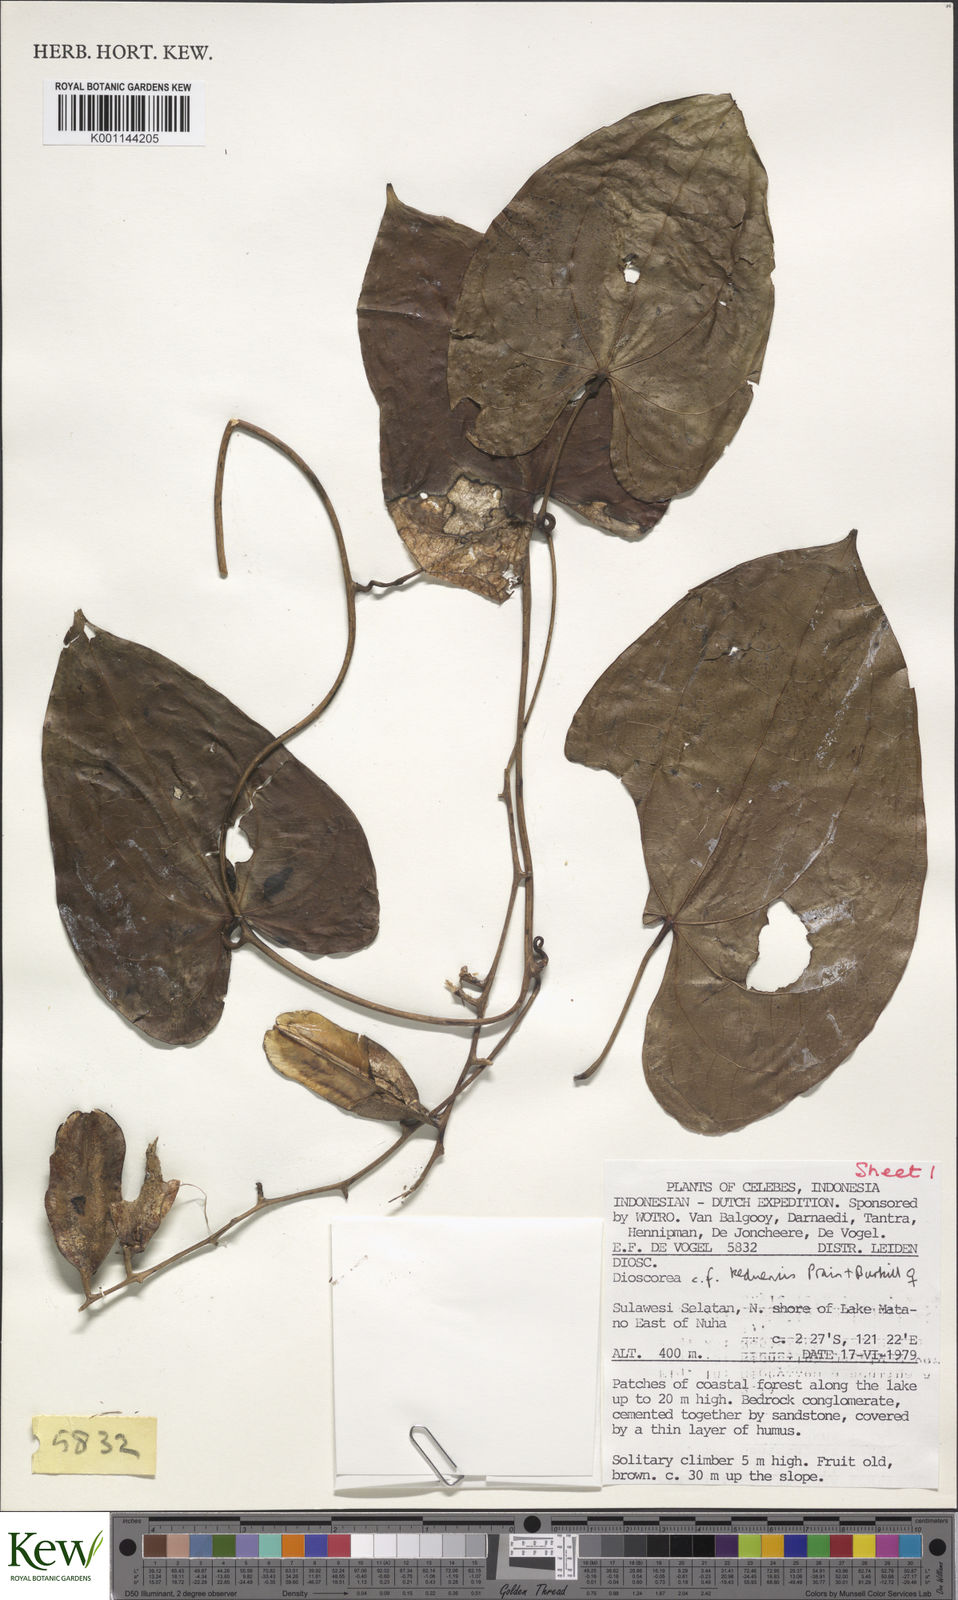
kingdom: Plantae
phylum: Tracheophyta
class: Liliopsida
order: Dioscoreales
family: Dioscoreaceae
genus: Dioscorea
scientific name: Dioscorea keduensis
